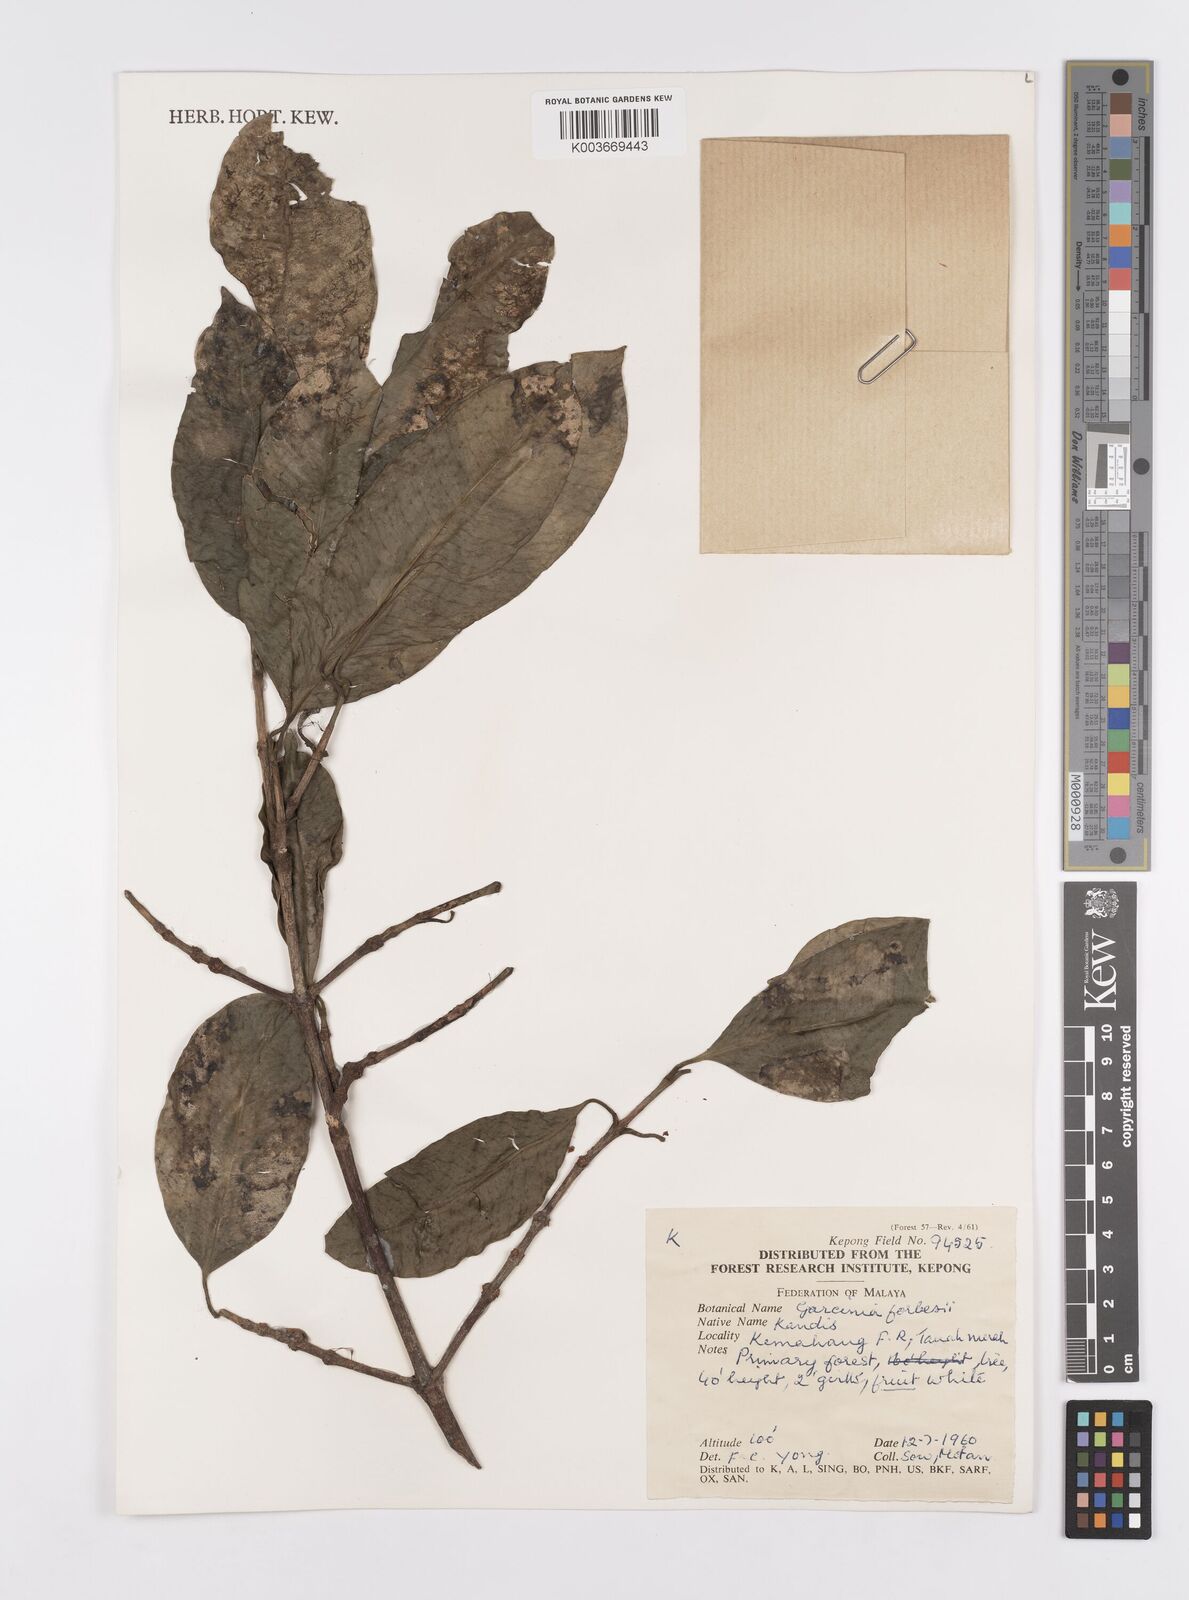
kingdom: Plantae
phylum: Tracheophyta
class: Magnoliopsida
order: Malpighiales
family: Clusiaceae
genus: Garcinia
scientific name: Garcinia forbesii
